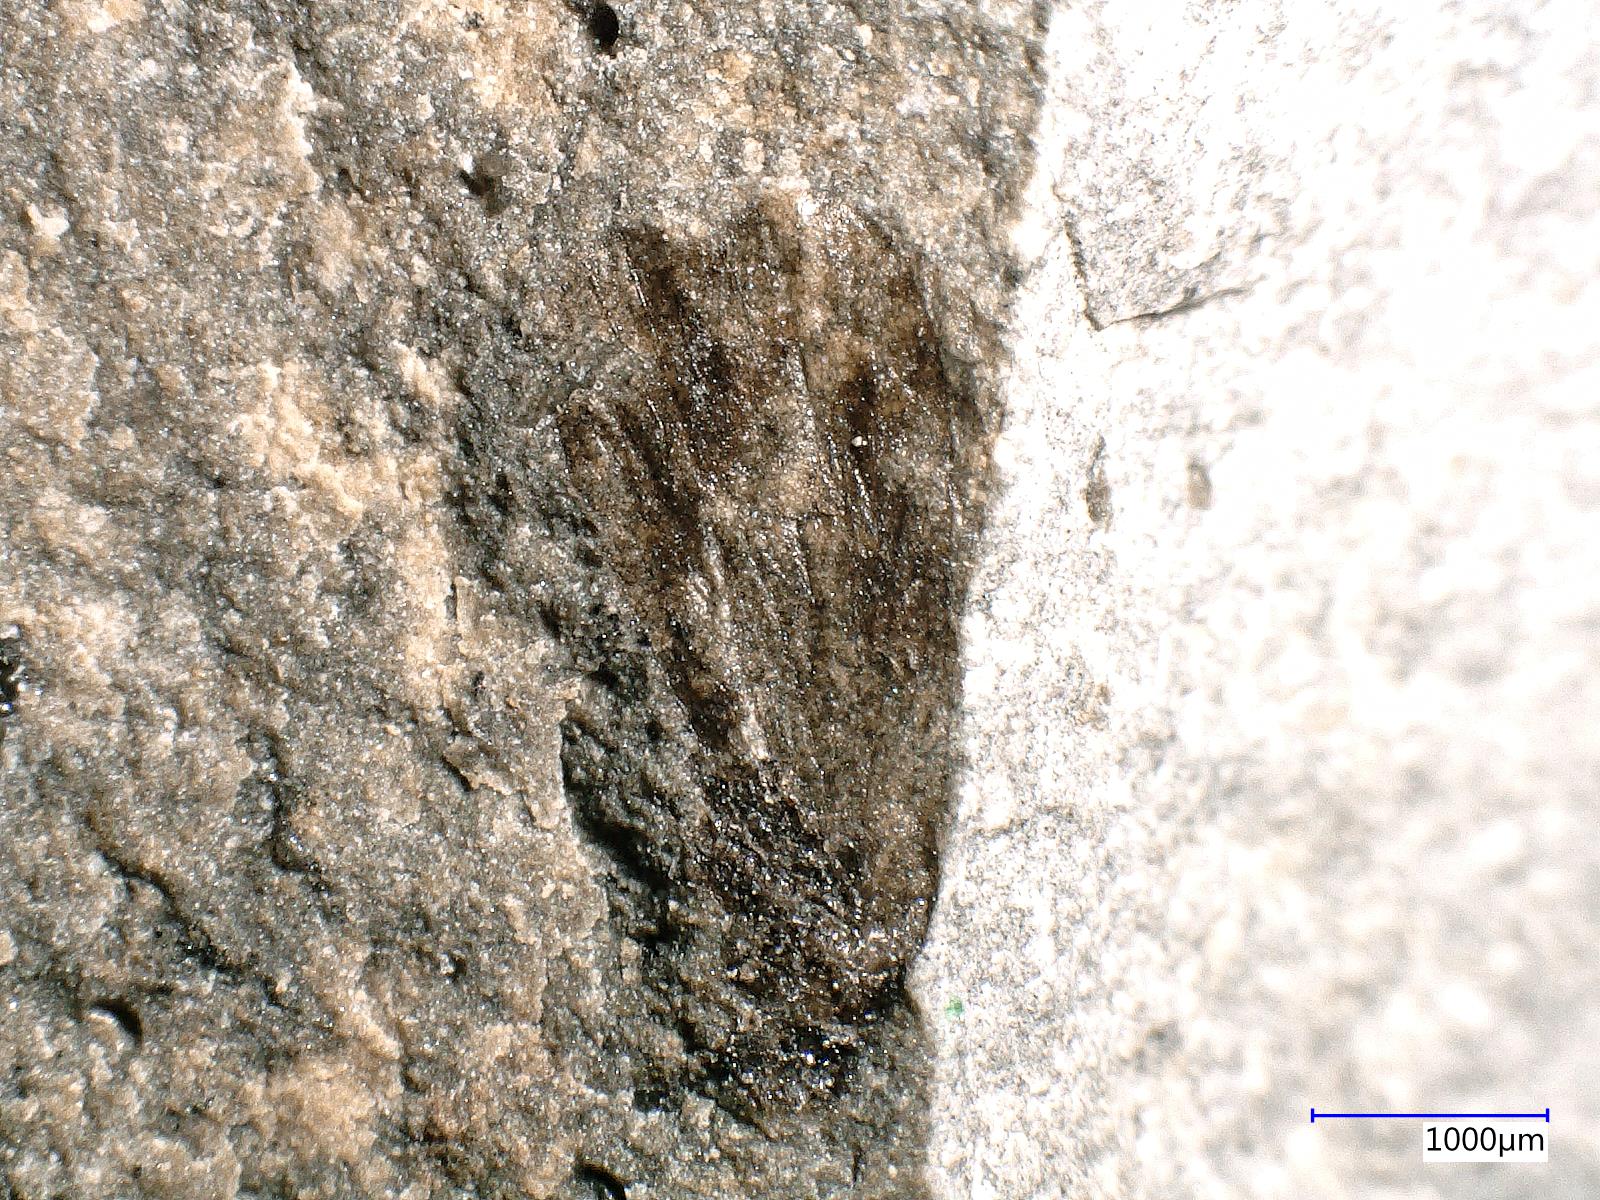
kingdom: Animalia
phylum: Arthropoda
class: Insecta
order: Trichoptera
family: Necrotauliidae
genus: Necrotaulius
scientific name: Necrotaulius Orthophlebia parvula
